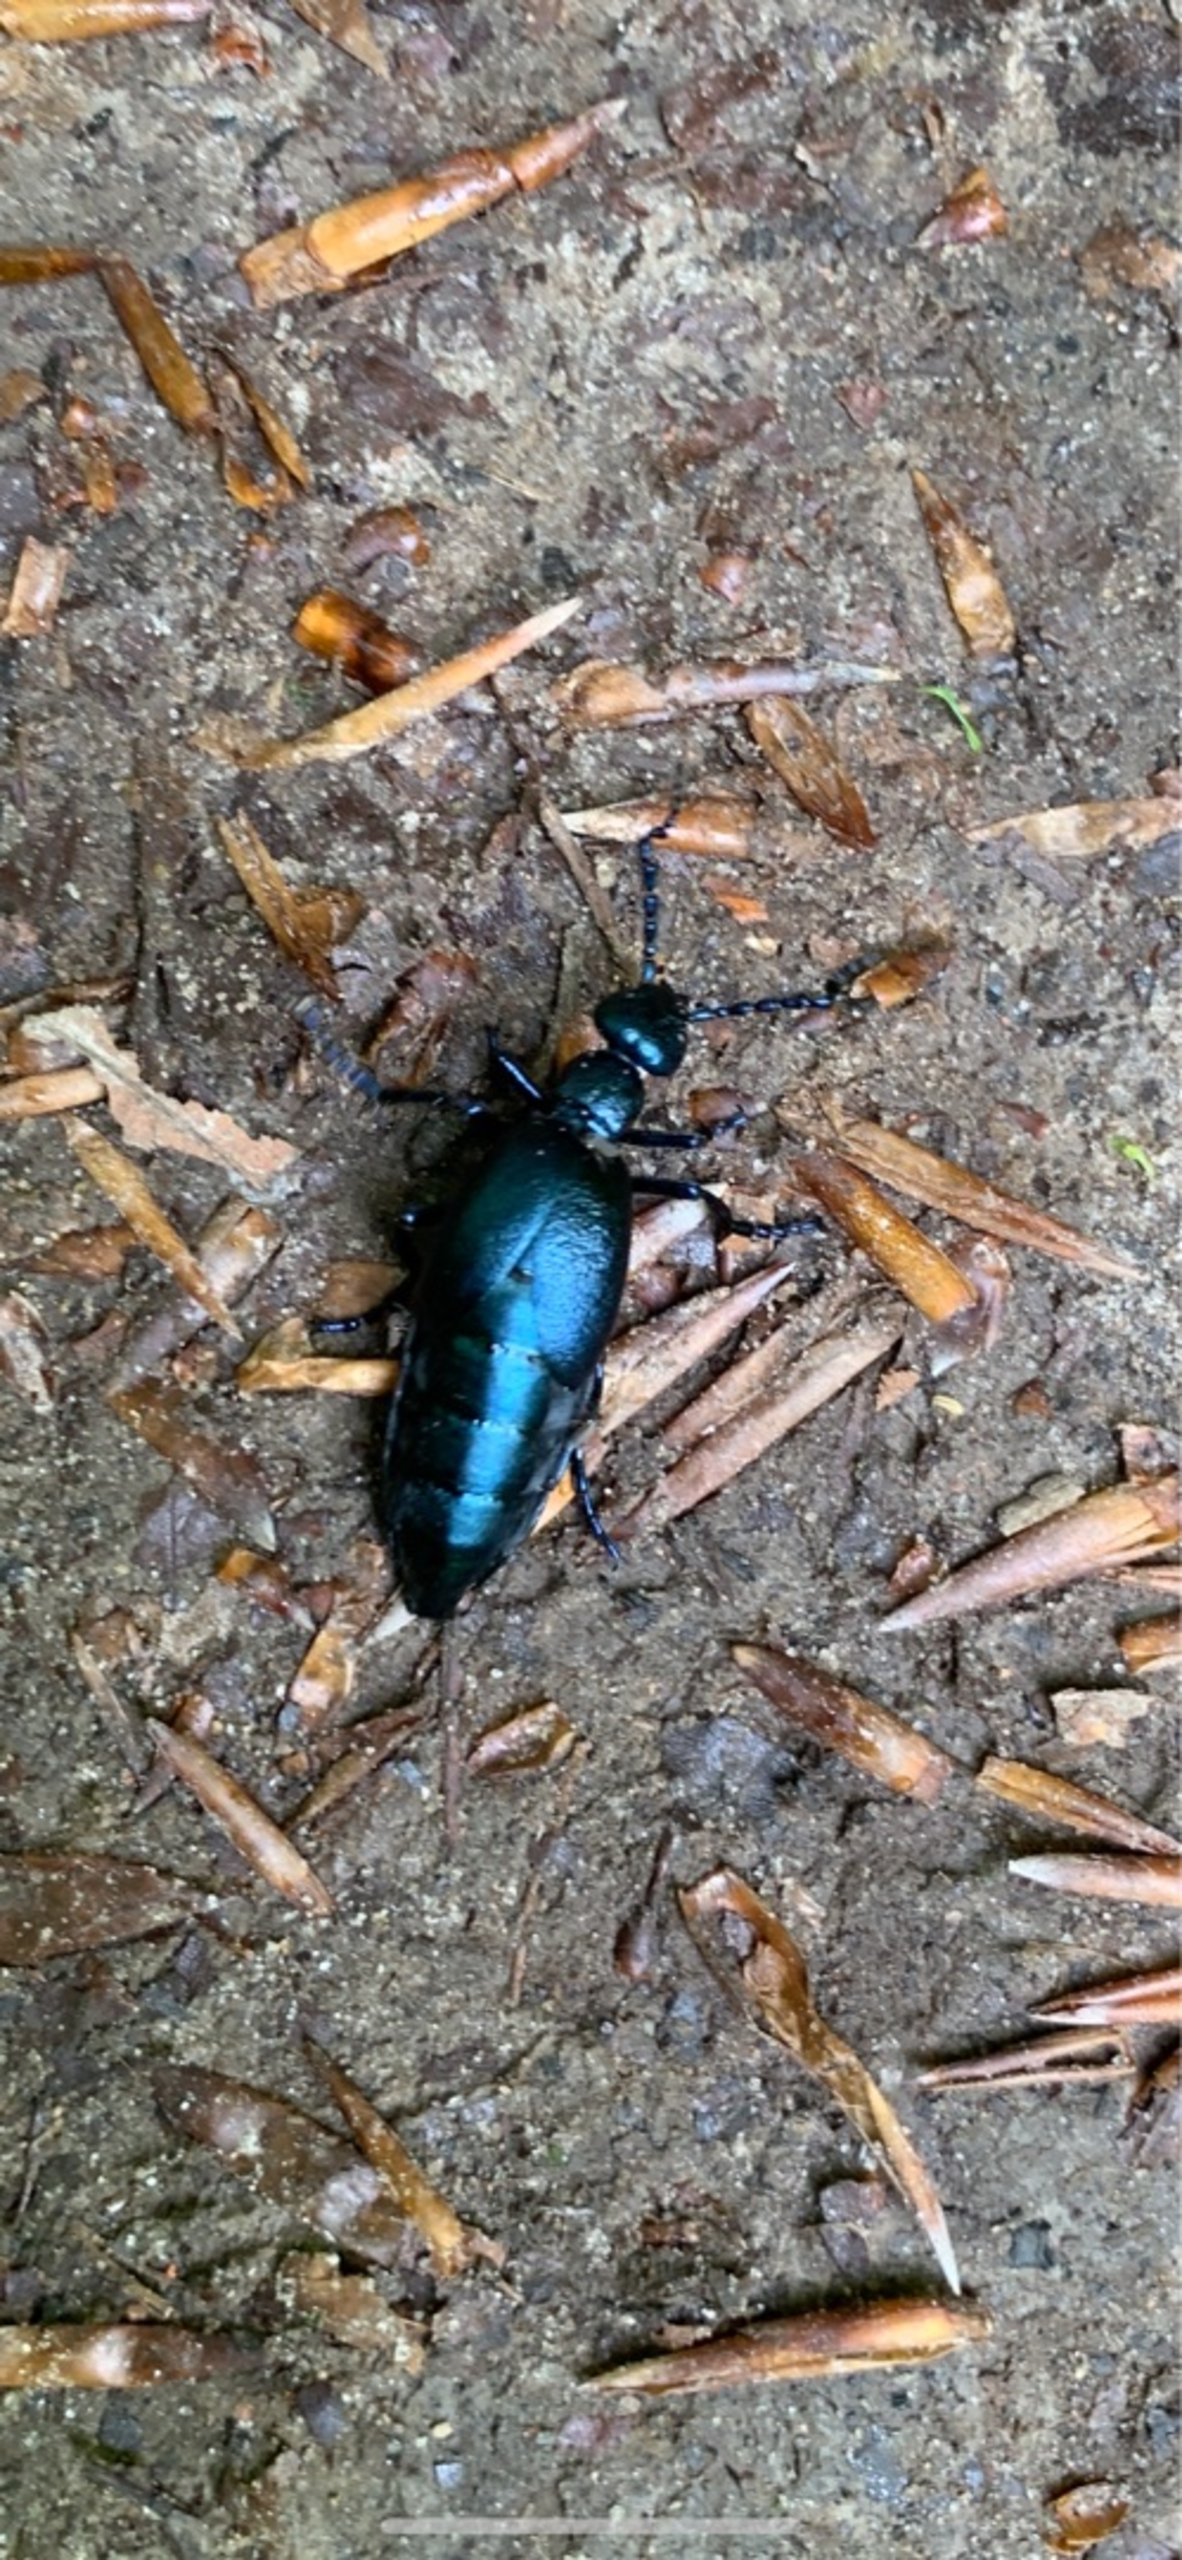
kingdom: Animalia
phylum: Arthropoda
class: Insecta
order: Coleoptera
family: Meloidae
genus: Meloe
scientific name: Meloe violaceus
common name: Blå oliebille
